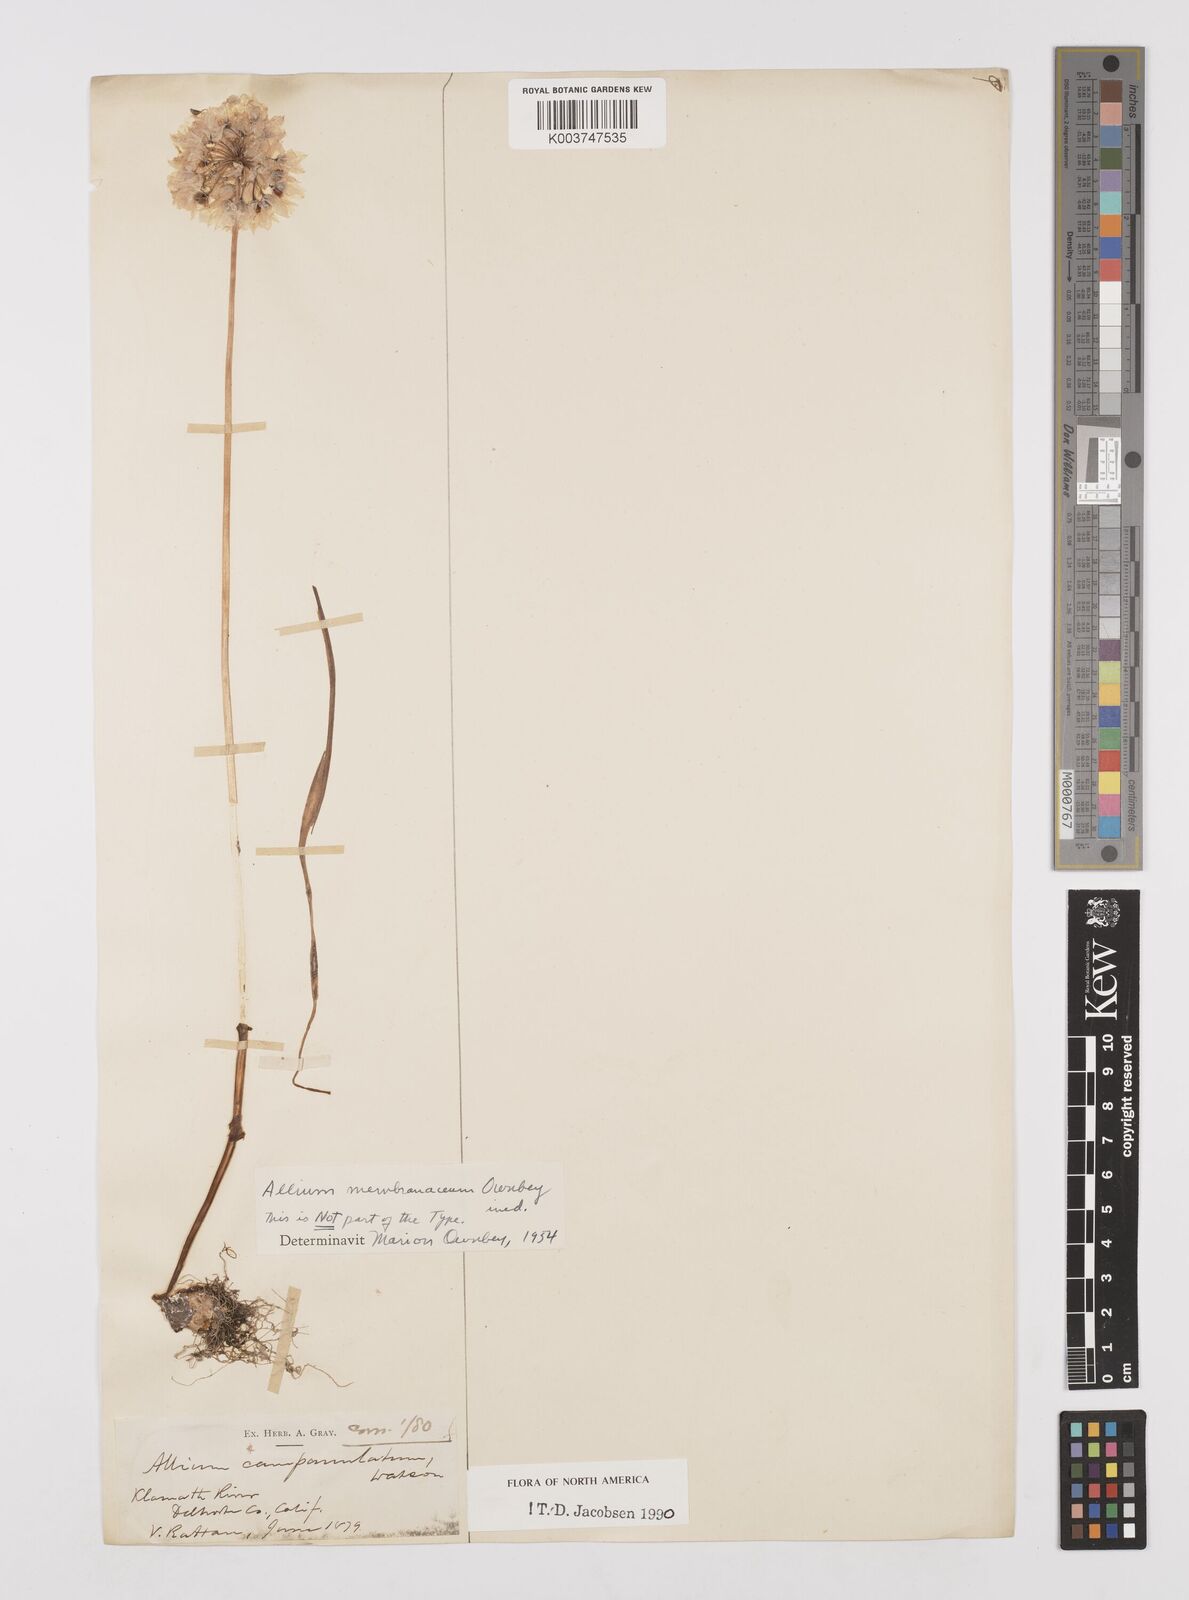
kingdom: Plantae
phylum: Tracheophyta
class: Liliopsida
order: Asparagales
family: Amaryllidaceae
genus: Allium
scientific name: Allium membranaceum
